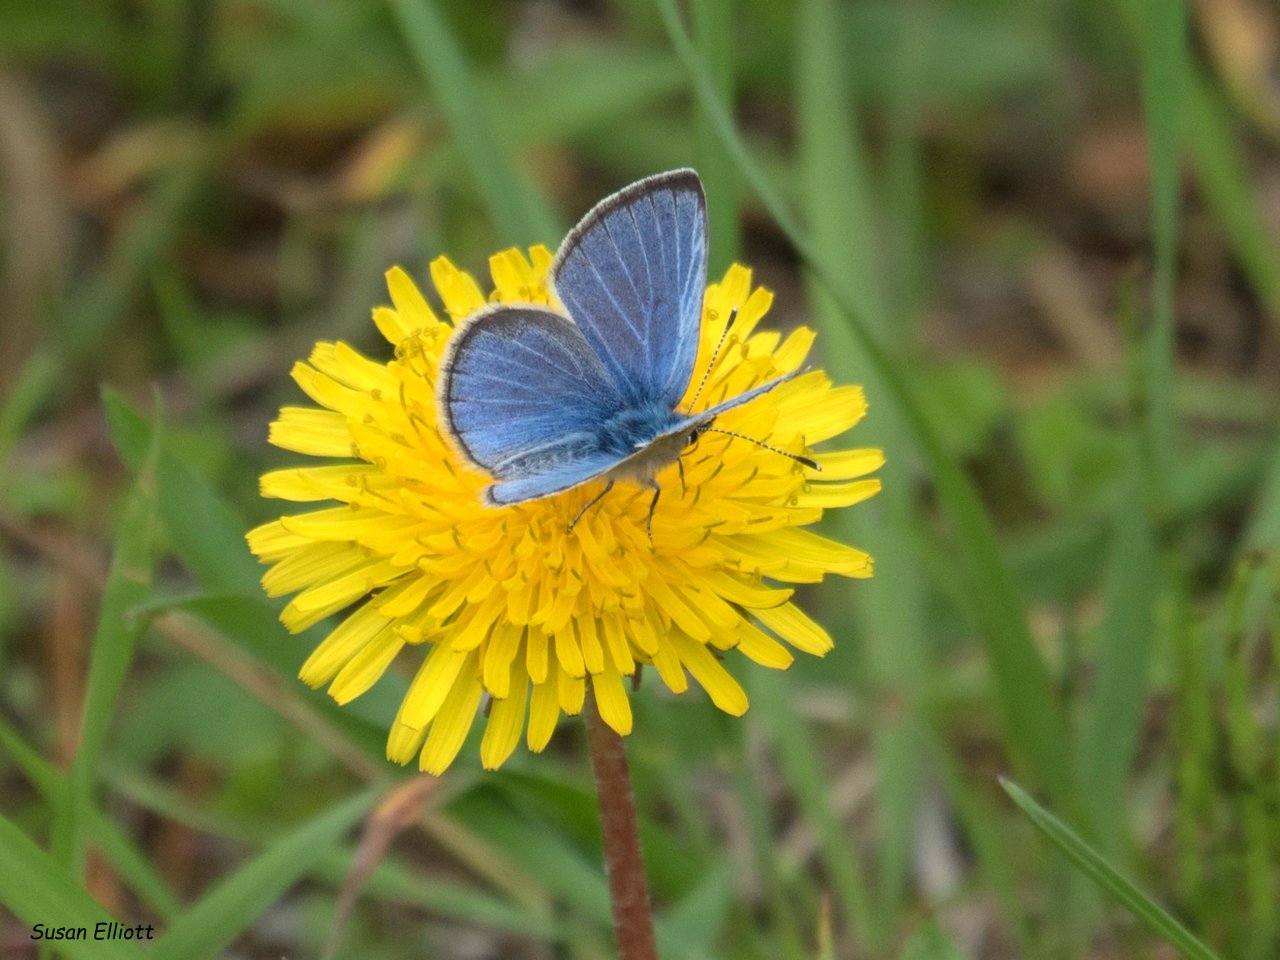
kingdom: Animalia
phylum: Arthropoda
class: Insecta
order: Lepidoptera
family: Lycaenidae
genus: Glaucopsyche
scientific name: Glaucopsyche lygdamus
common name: Silvery Blue
